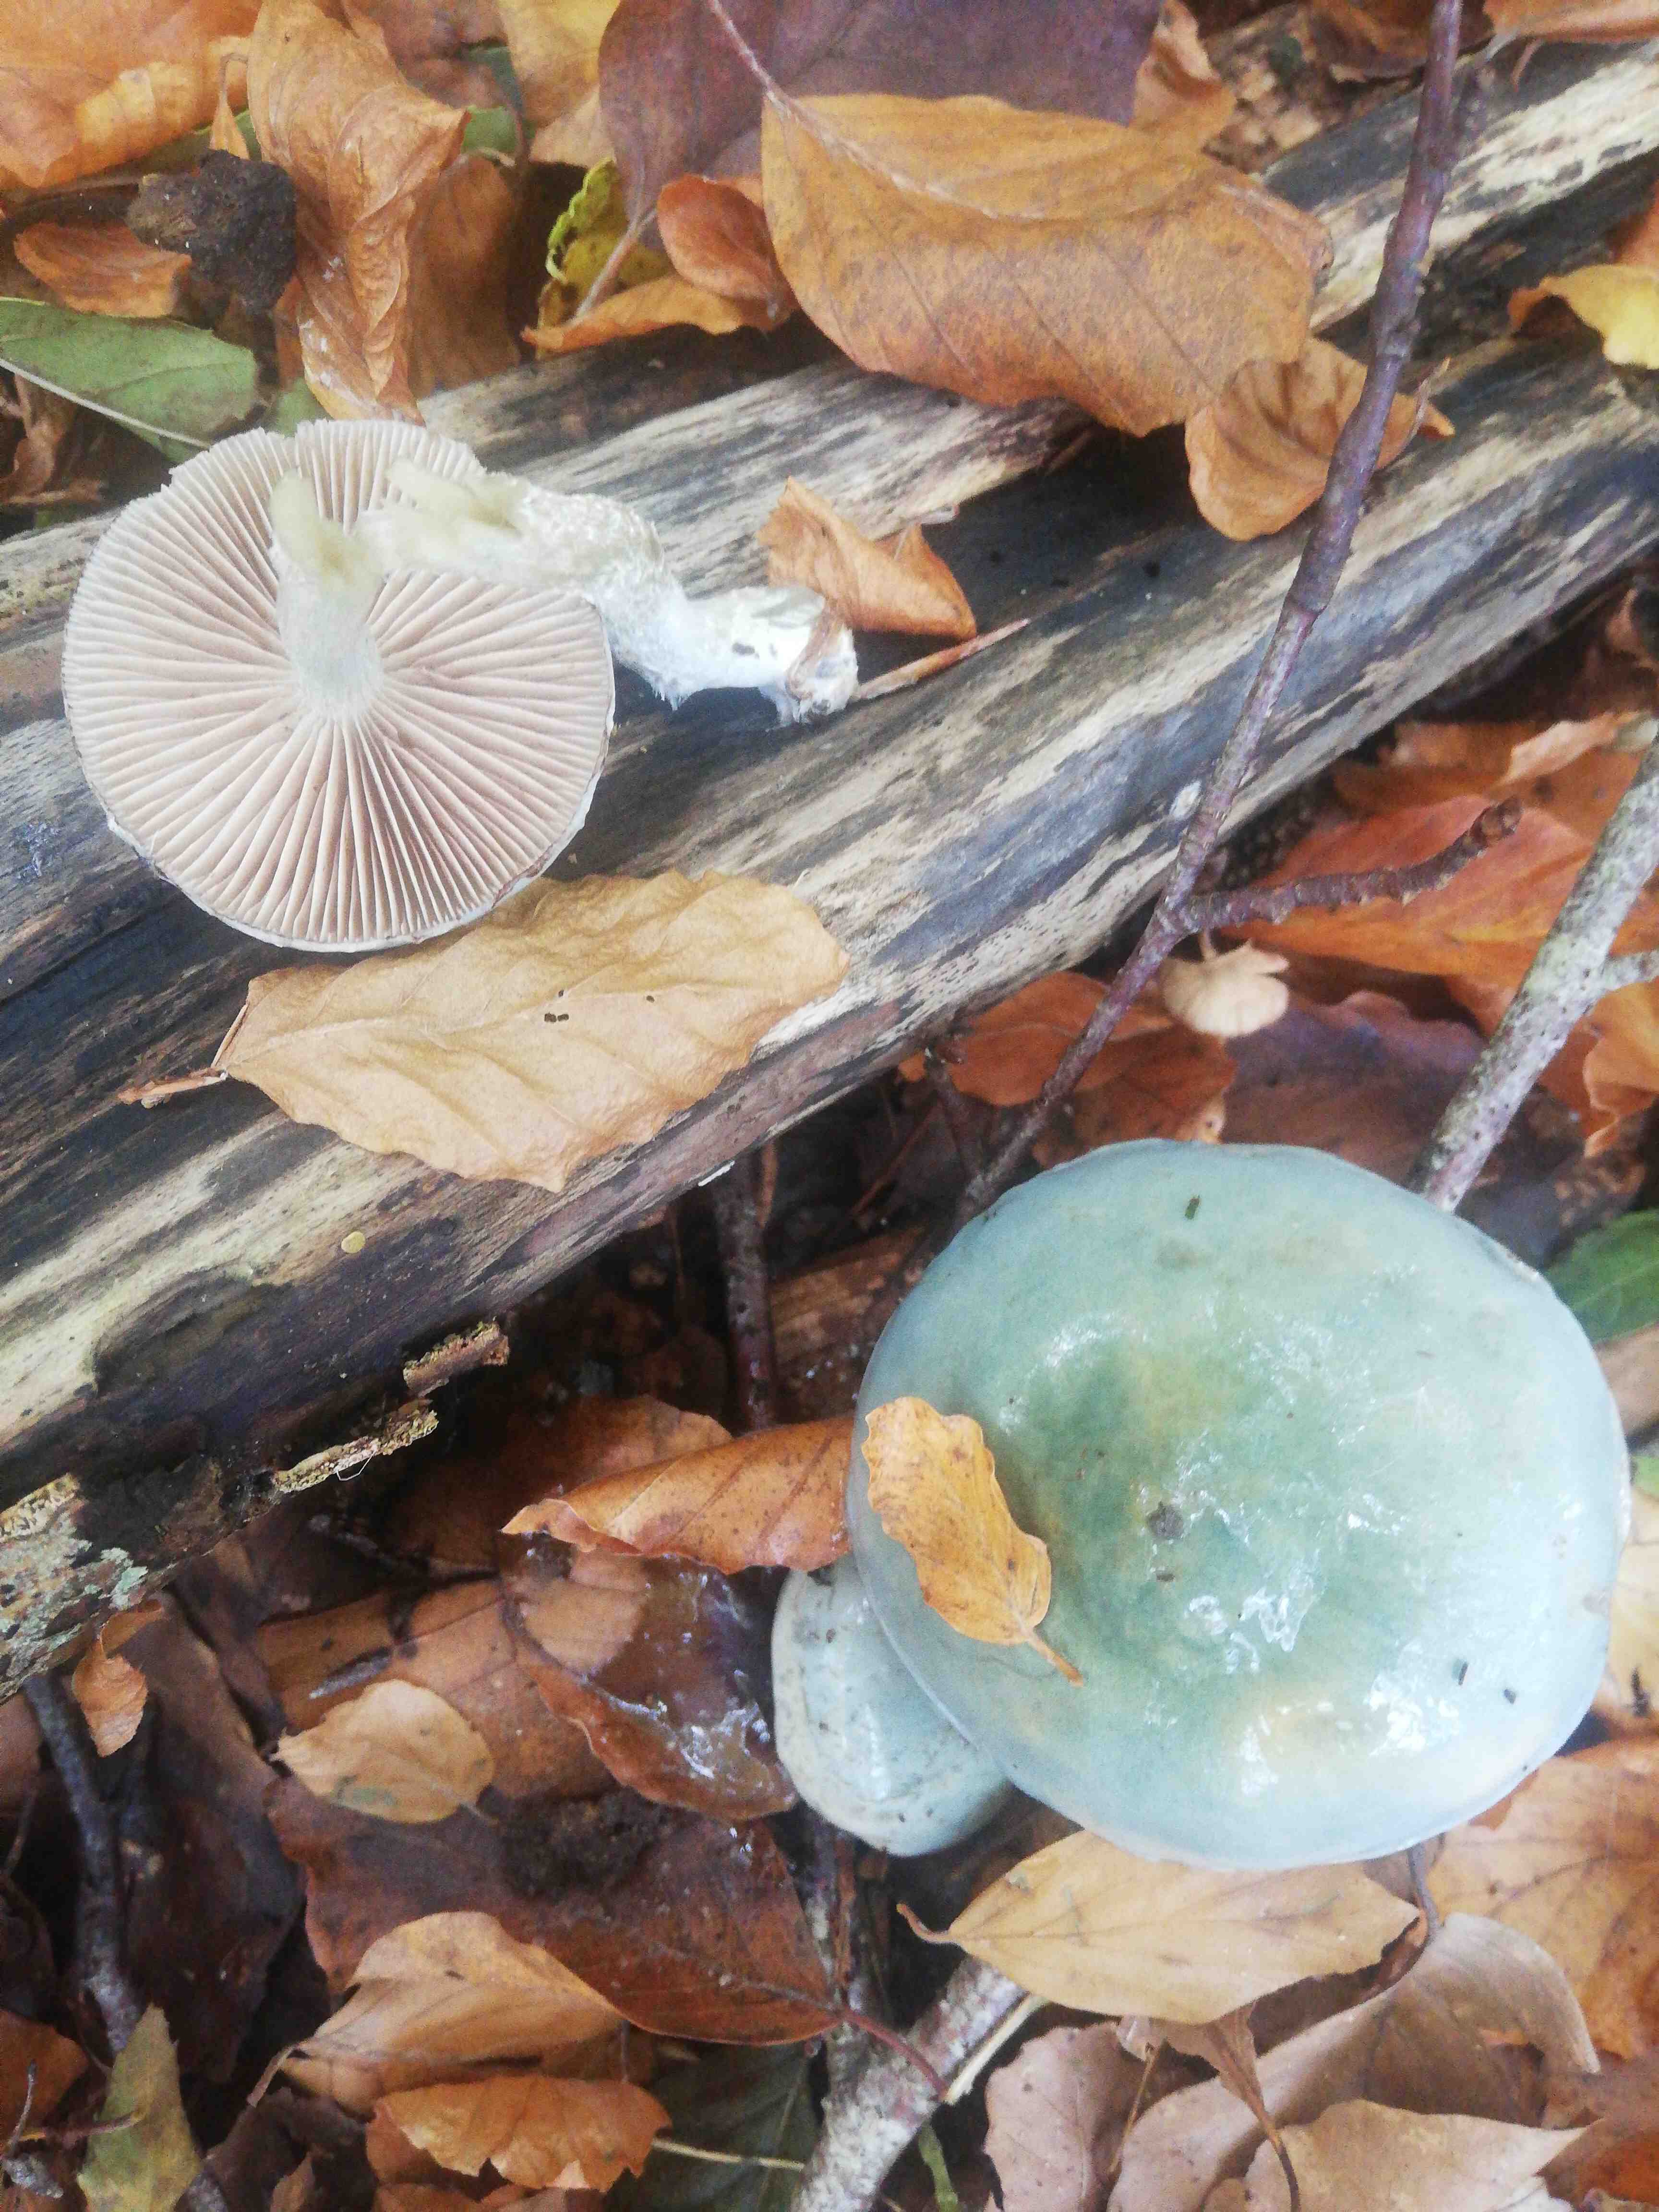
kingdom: Fungi
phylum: Basidiomycota
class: Agaricomycetes
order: Agaricales
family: Strophariaceae
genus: Stropharia
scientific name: Stropharia cyanea
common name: blågrøn bredblad
